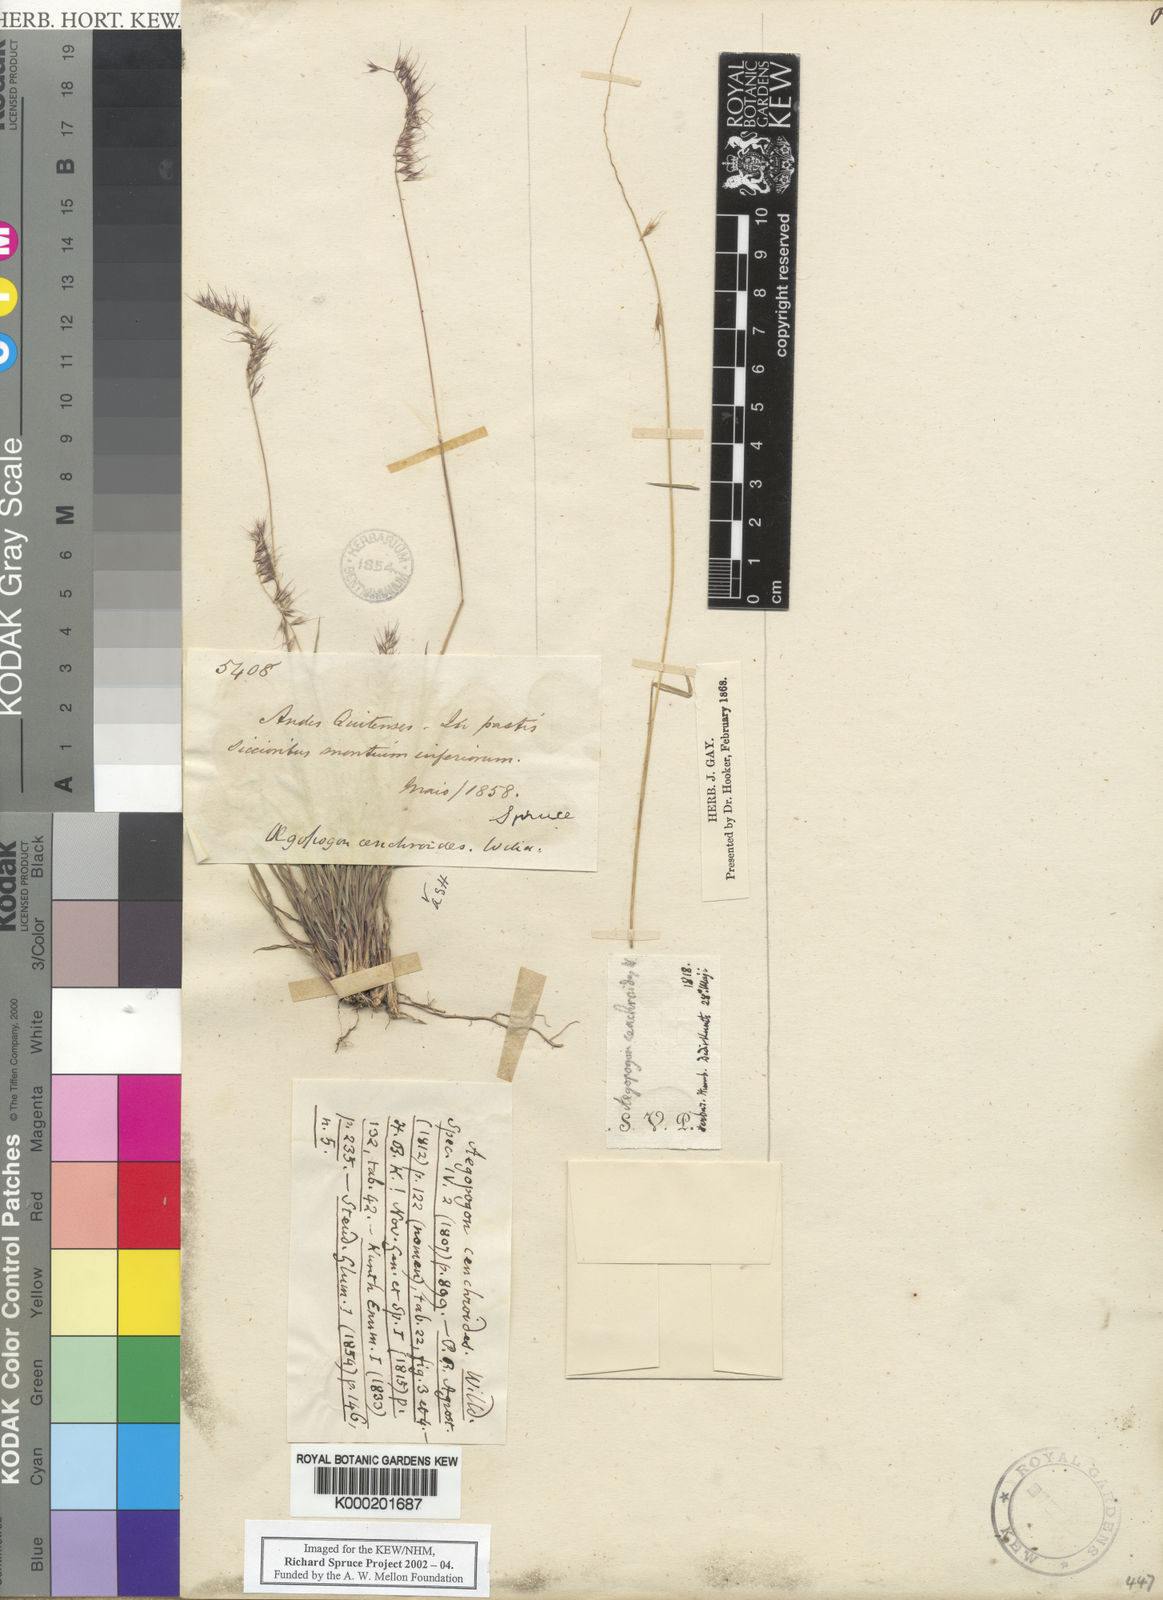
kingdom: Plantae
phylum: Tracheophyta
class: Liliopsida
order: Poales
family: Poaceae
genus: Muhlenbergia
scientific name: Muhlenbergia cenchroides
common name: Relaxgrass
